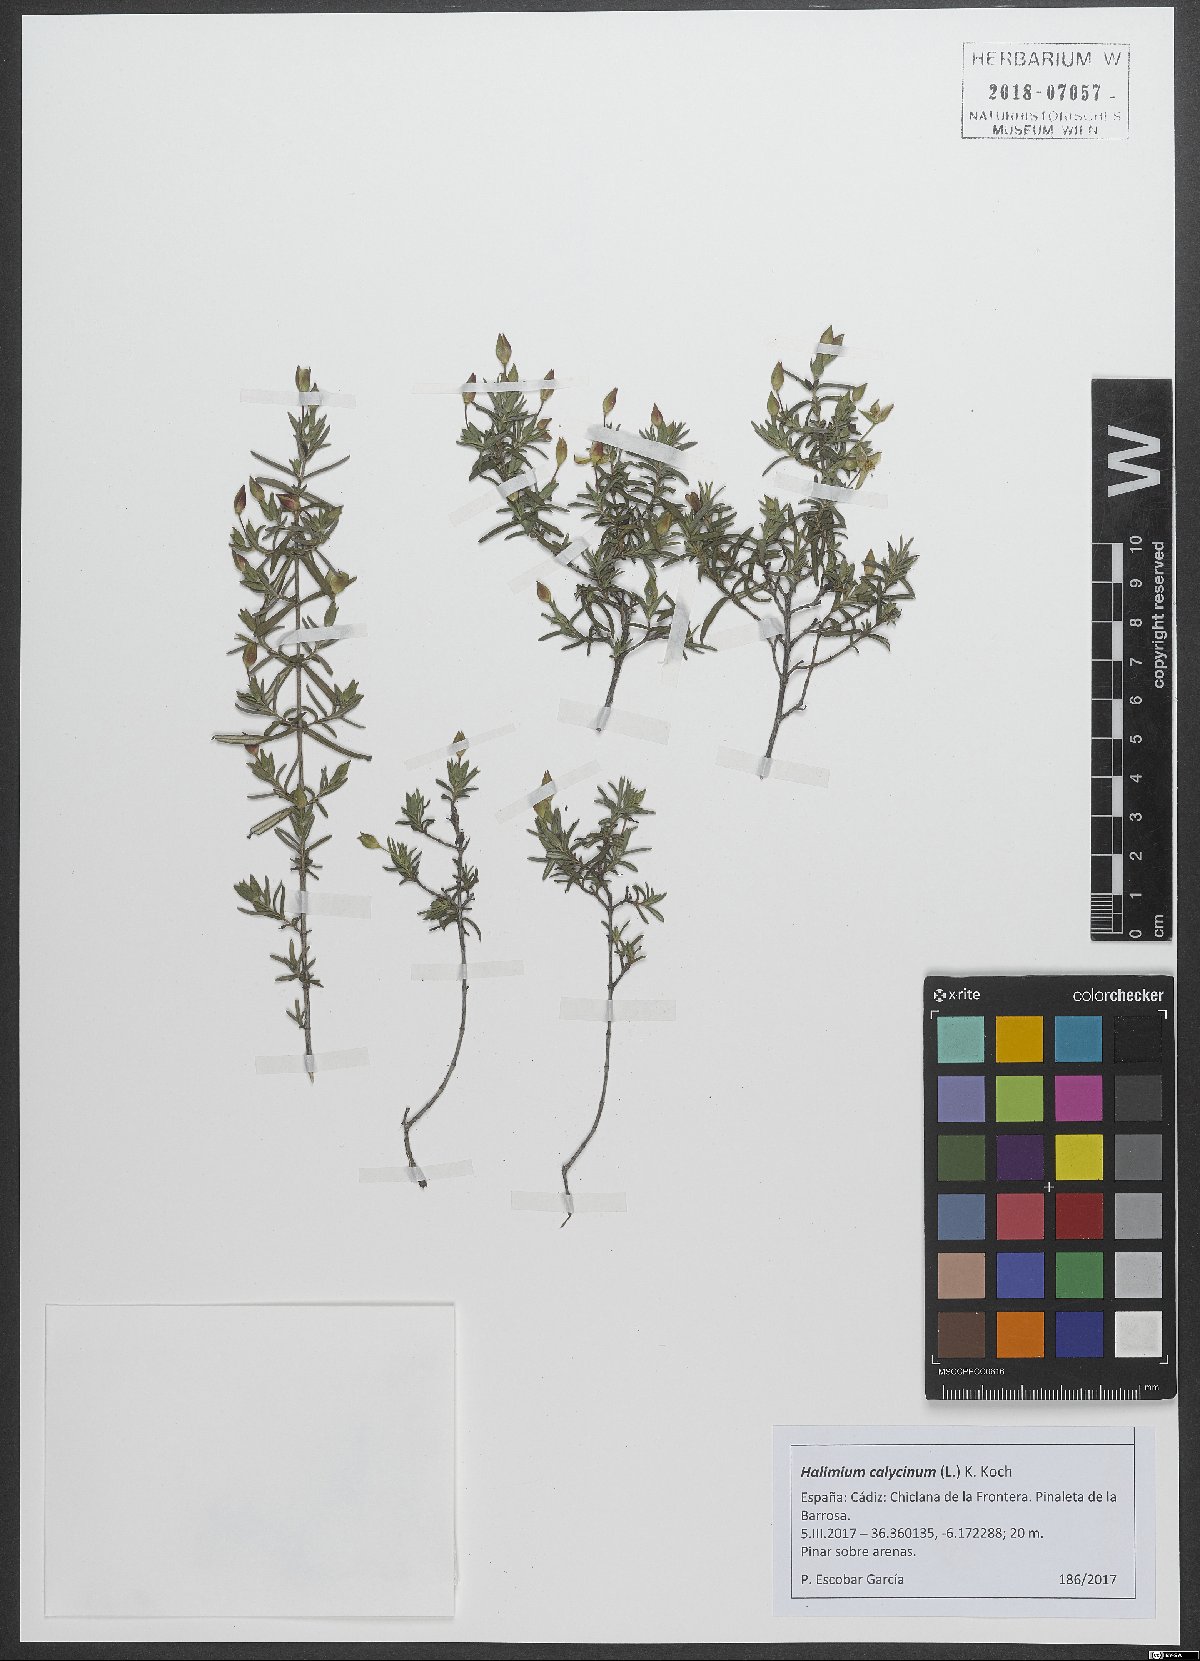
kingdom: Plantae
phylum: Tracheophyta
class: Magnoliopsida
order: Malvales
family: Cistaceae
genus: Halimium
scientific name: Halimium calycinum
